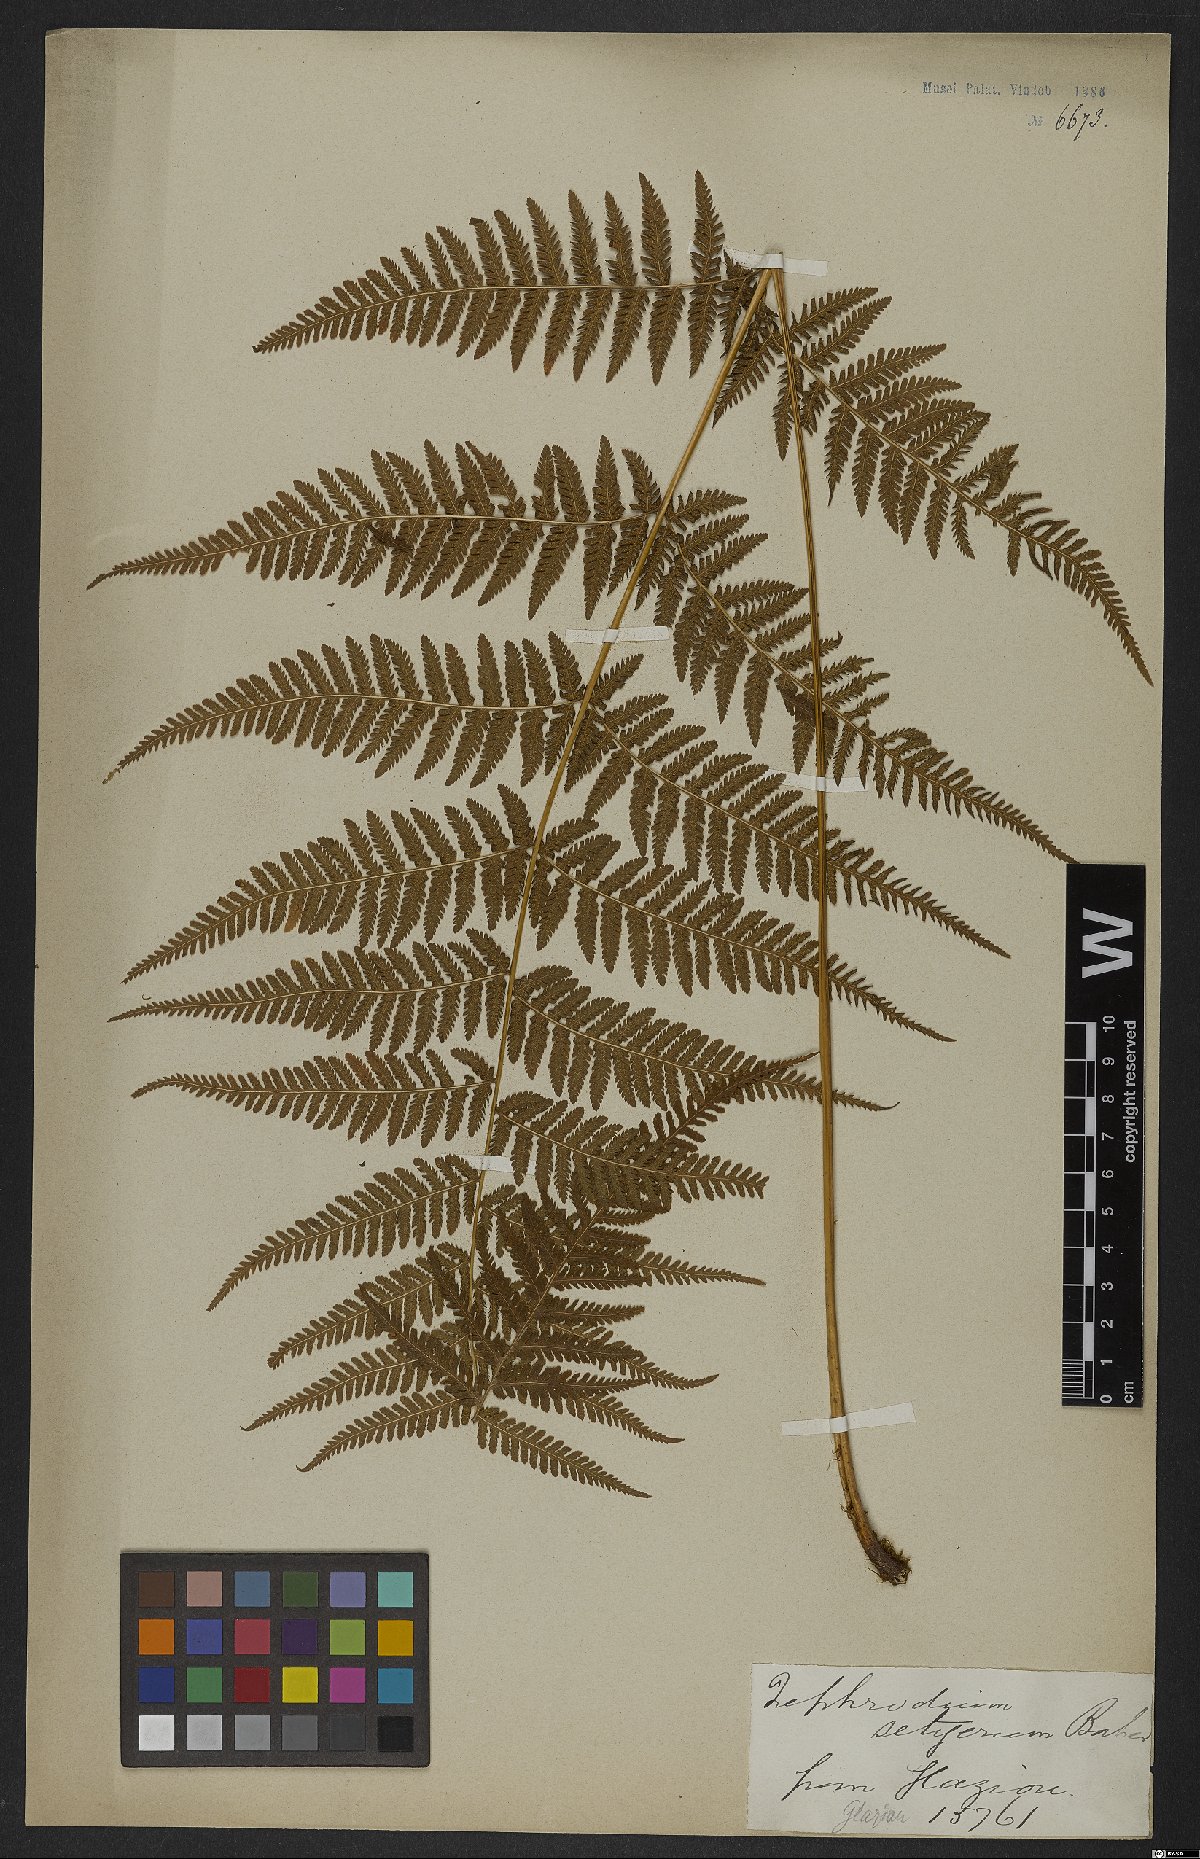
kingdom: Plantae
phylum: Tracheophyta
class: Polypodiopsida
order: Polypodiales
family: Thelypteridaceae
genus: Macrothelypteris
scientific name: Macrothelypteris torresiana
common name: Swordfern
